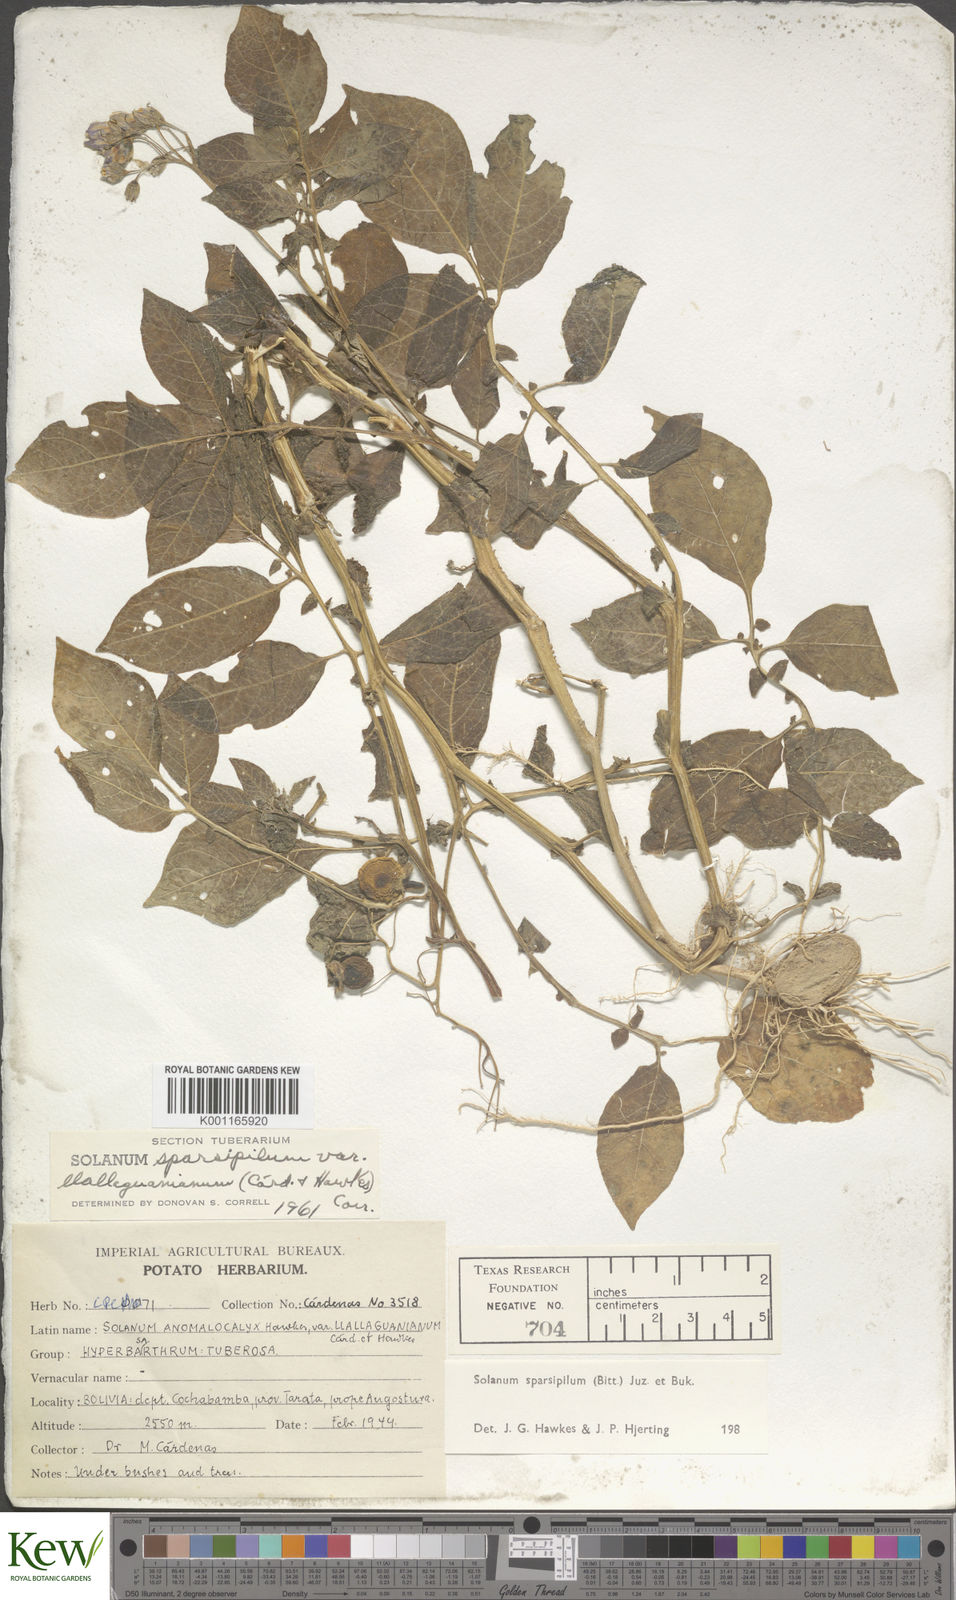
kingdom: Plantae
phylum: Tracheophyta
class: Magnoliopsida
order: Solanales
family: Solanaceae
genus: Solanum
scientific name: Solanum brevicaule
